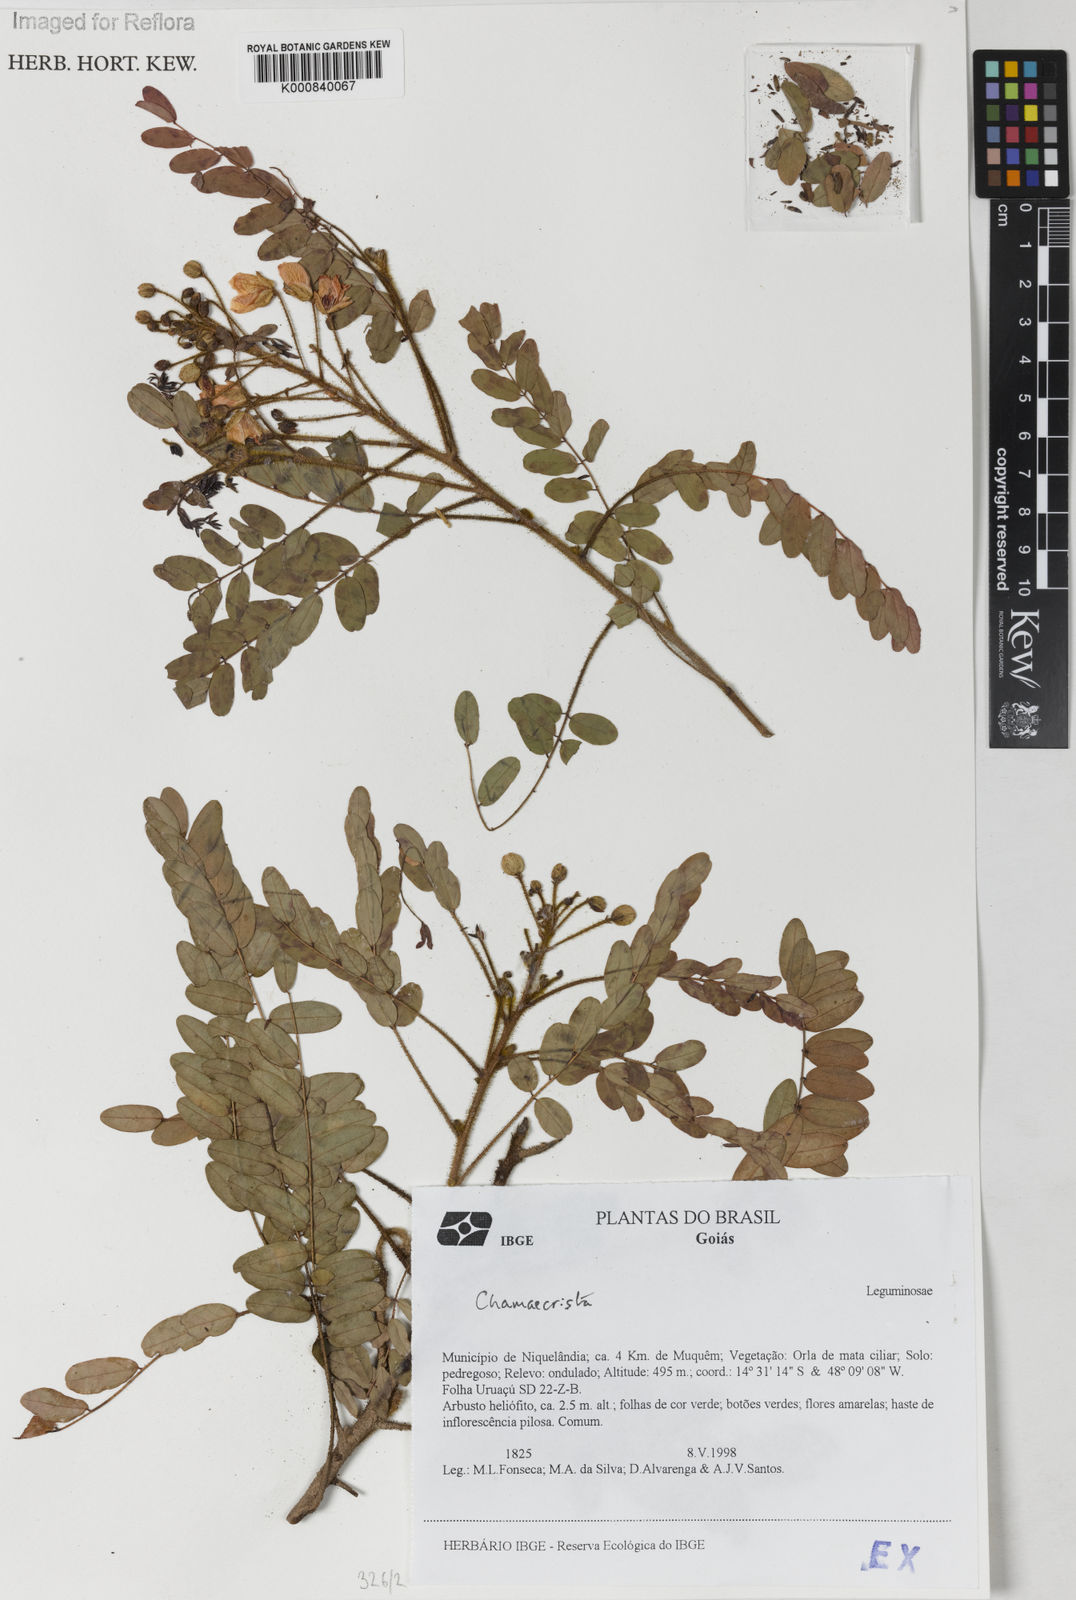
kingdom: Plantae
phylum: Tracheophyta
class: Magnoliopsida
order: Fabales
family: Fabaceae
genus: Chamaecrista
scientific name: Chamaecrista
